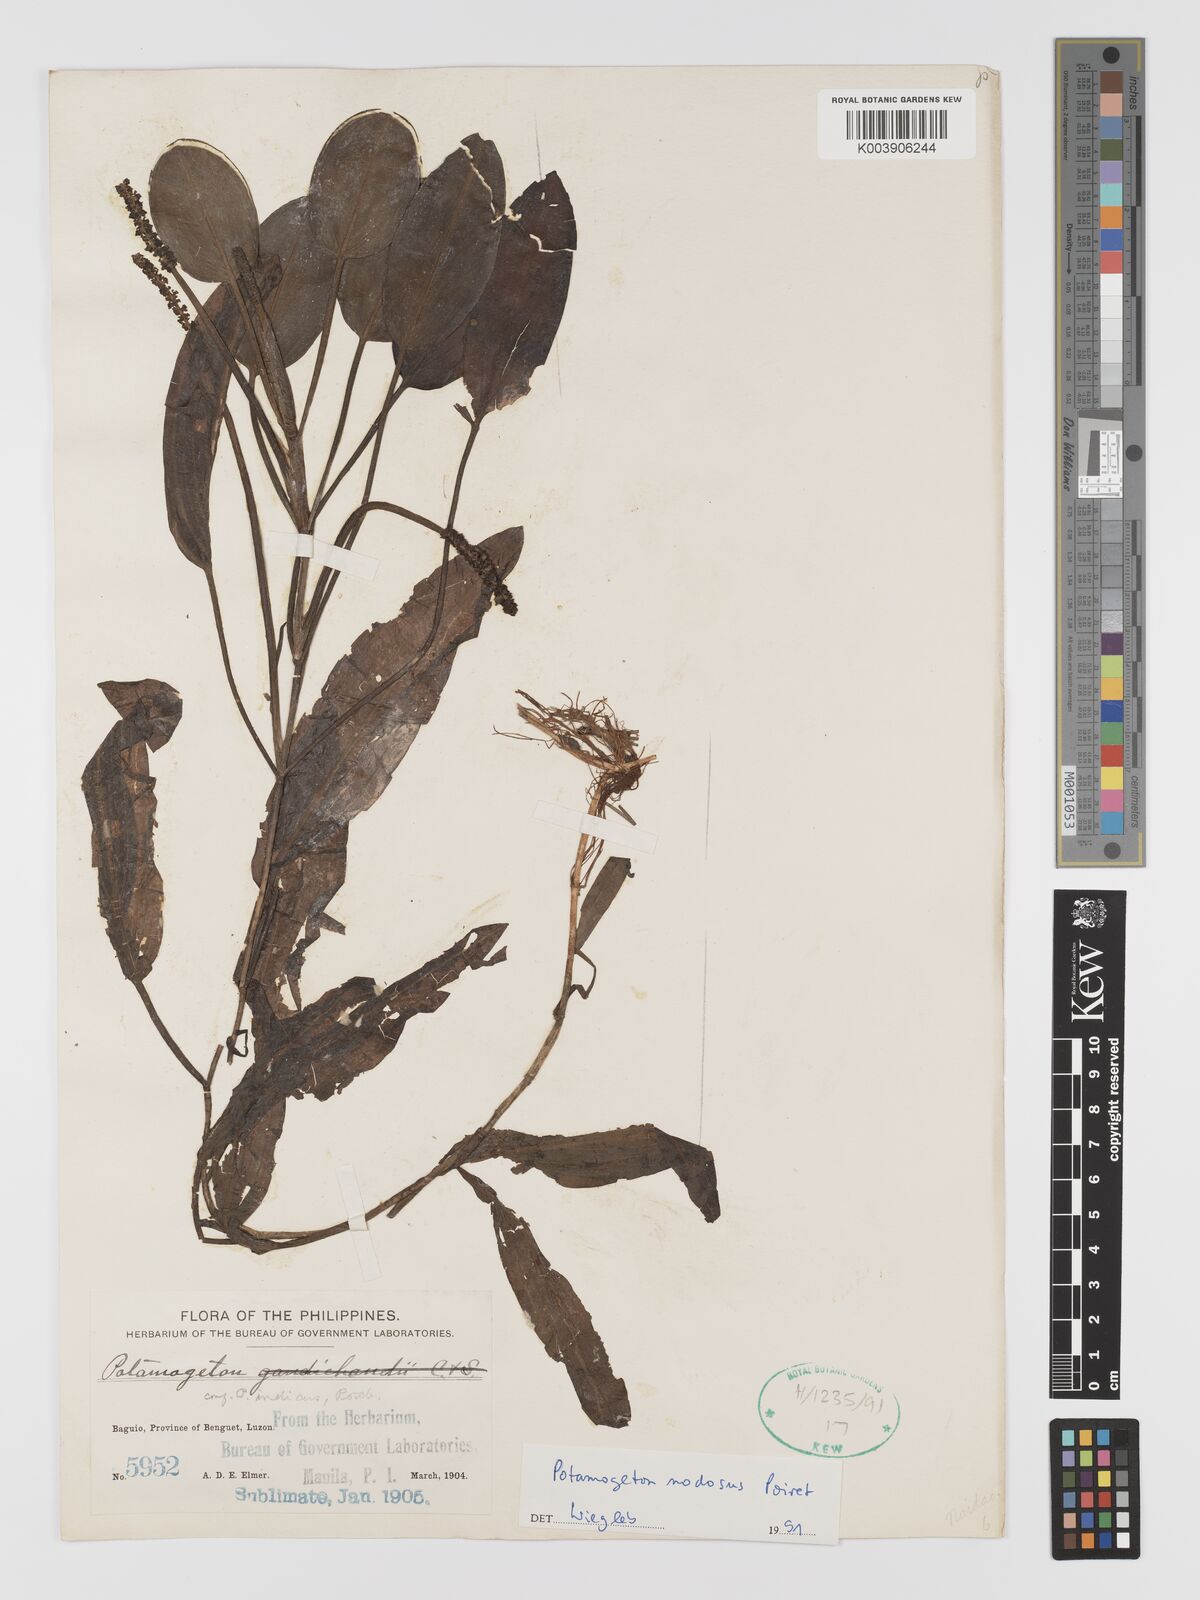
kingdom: Plantae
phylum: Tracheophyta
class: Liliopsida
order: Alismatales
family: Potamogetonaceae
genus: Potamogeton
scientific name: Potamogeton nodosus
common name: Loddon pondweed
